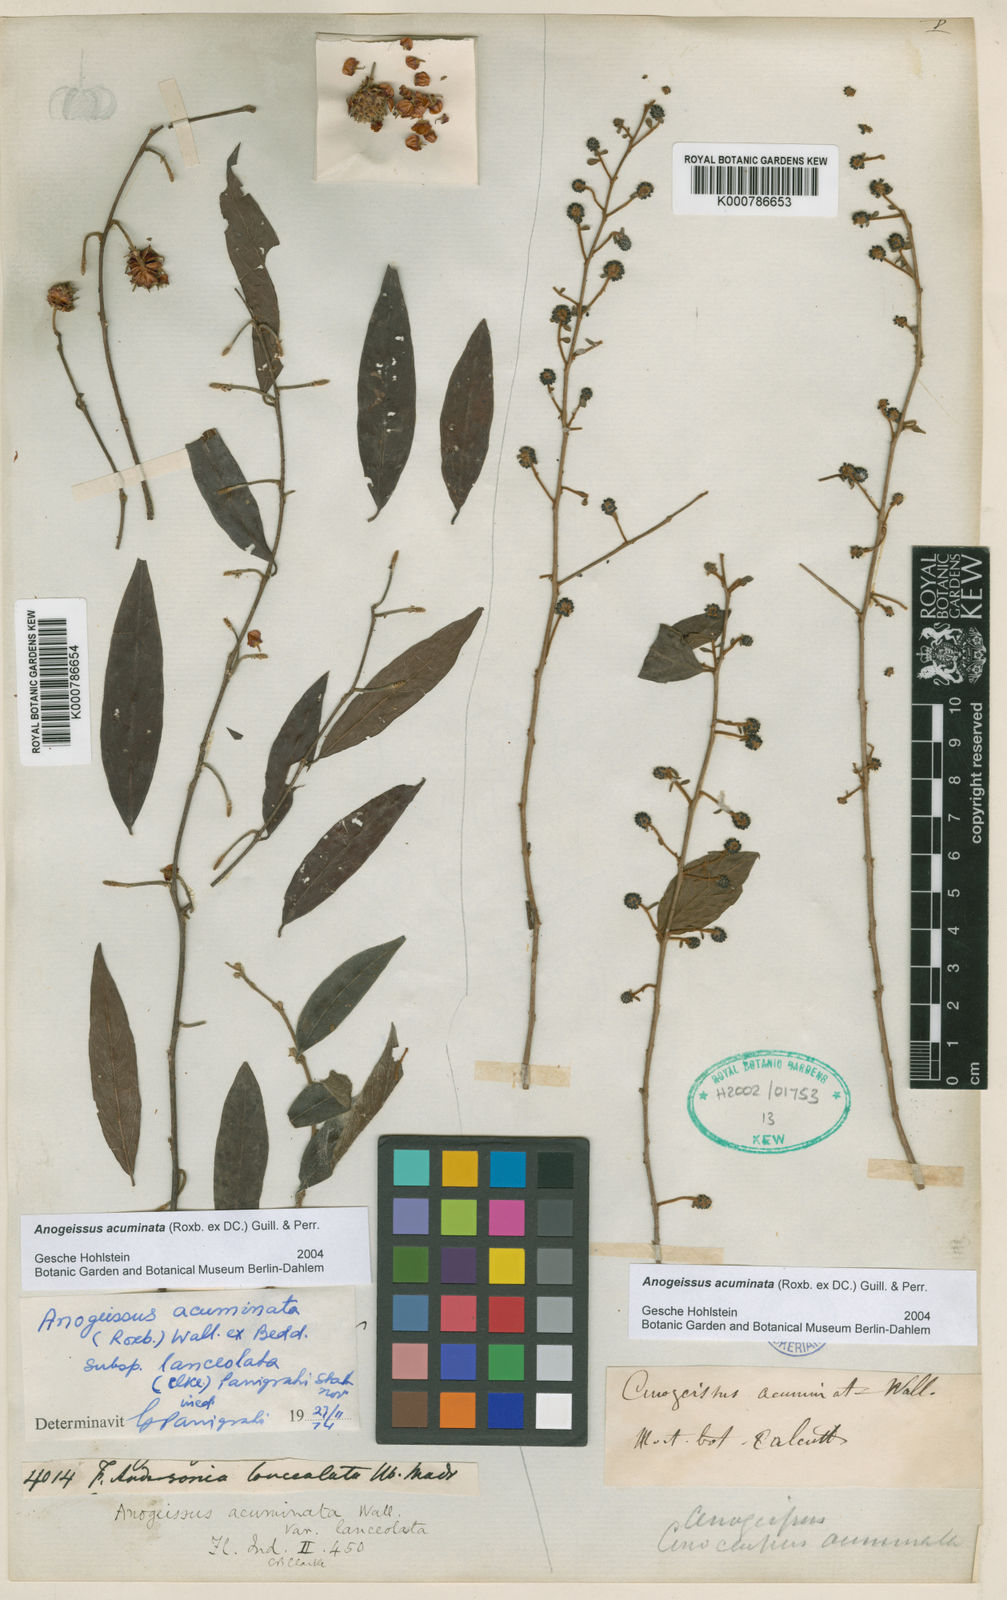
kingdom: Plantae
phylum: Tracheophyta
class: Magnoliopsida
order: Myrtales
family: Combretaceae
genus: Terminalia
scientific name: Terminalia phillyreifolia
